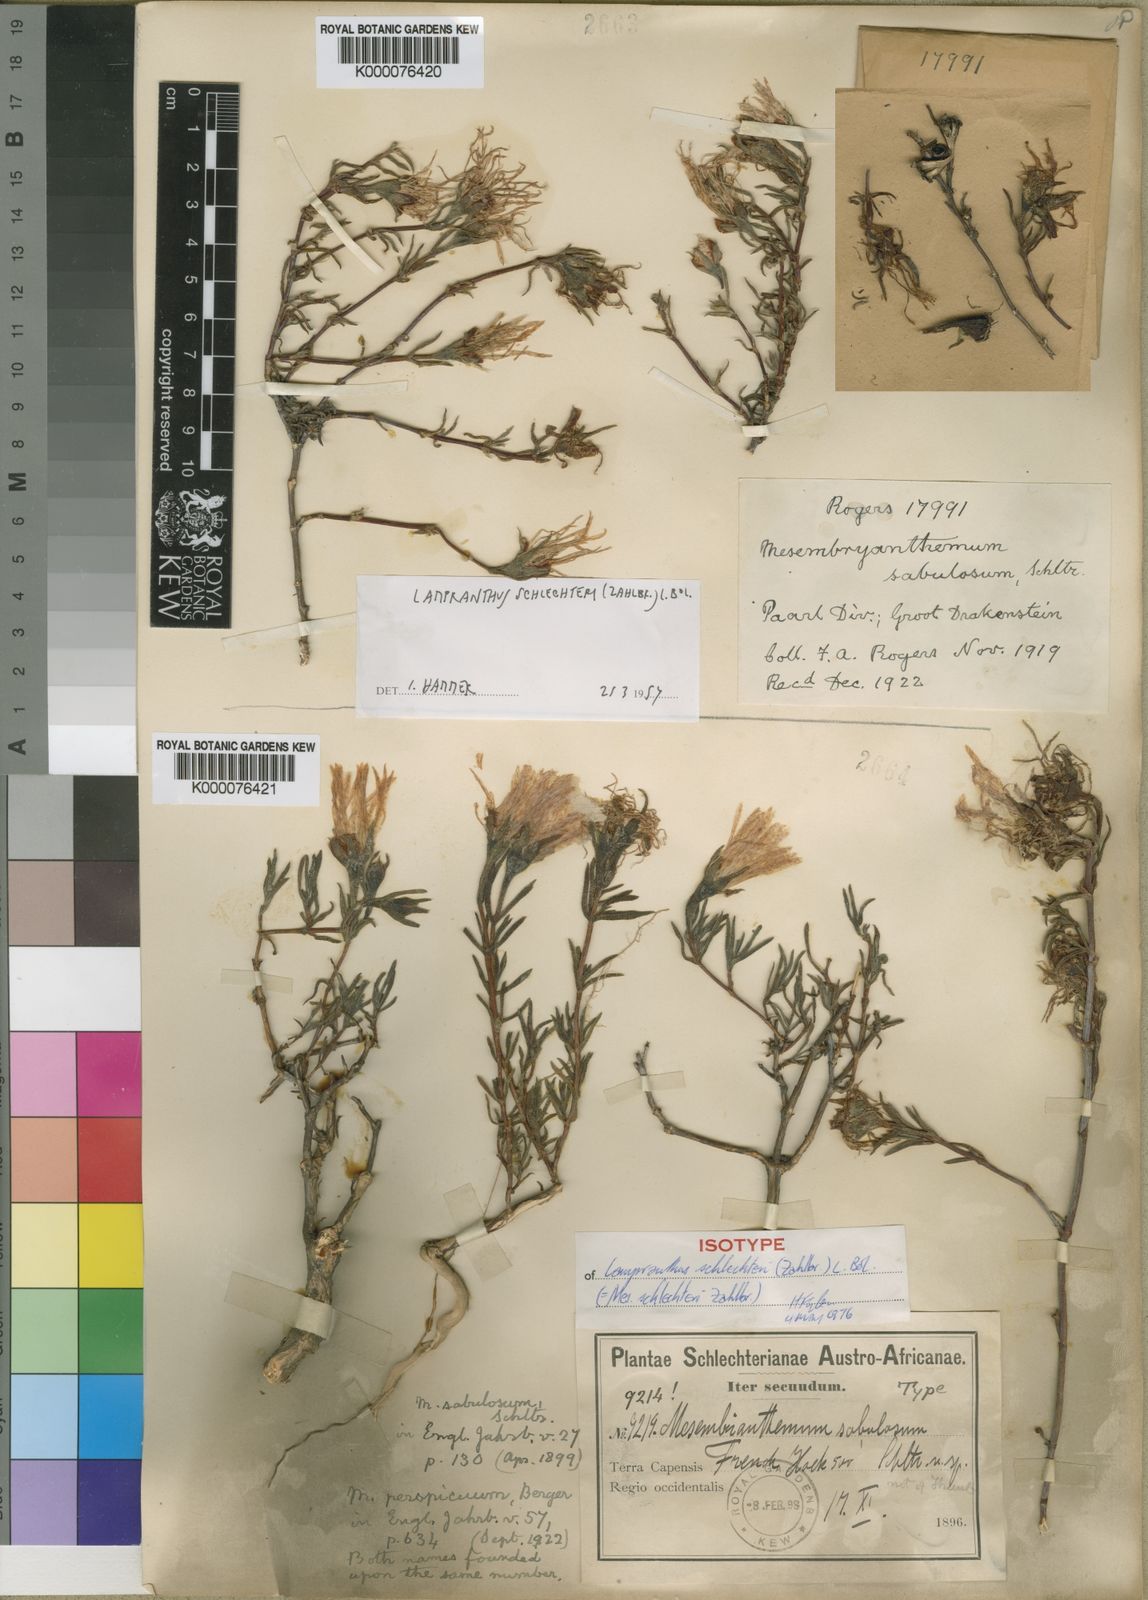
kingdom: Plantae
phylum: Tracheophyta
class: Magnoliopsida
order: Caryophyllales
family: Aizoaceae
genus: Lampranthus
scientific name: Lampranthus schlechteri
